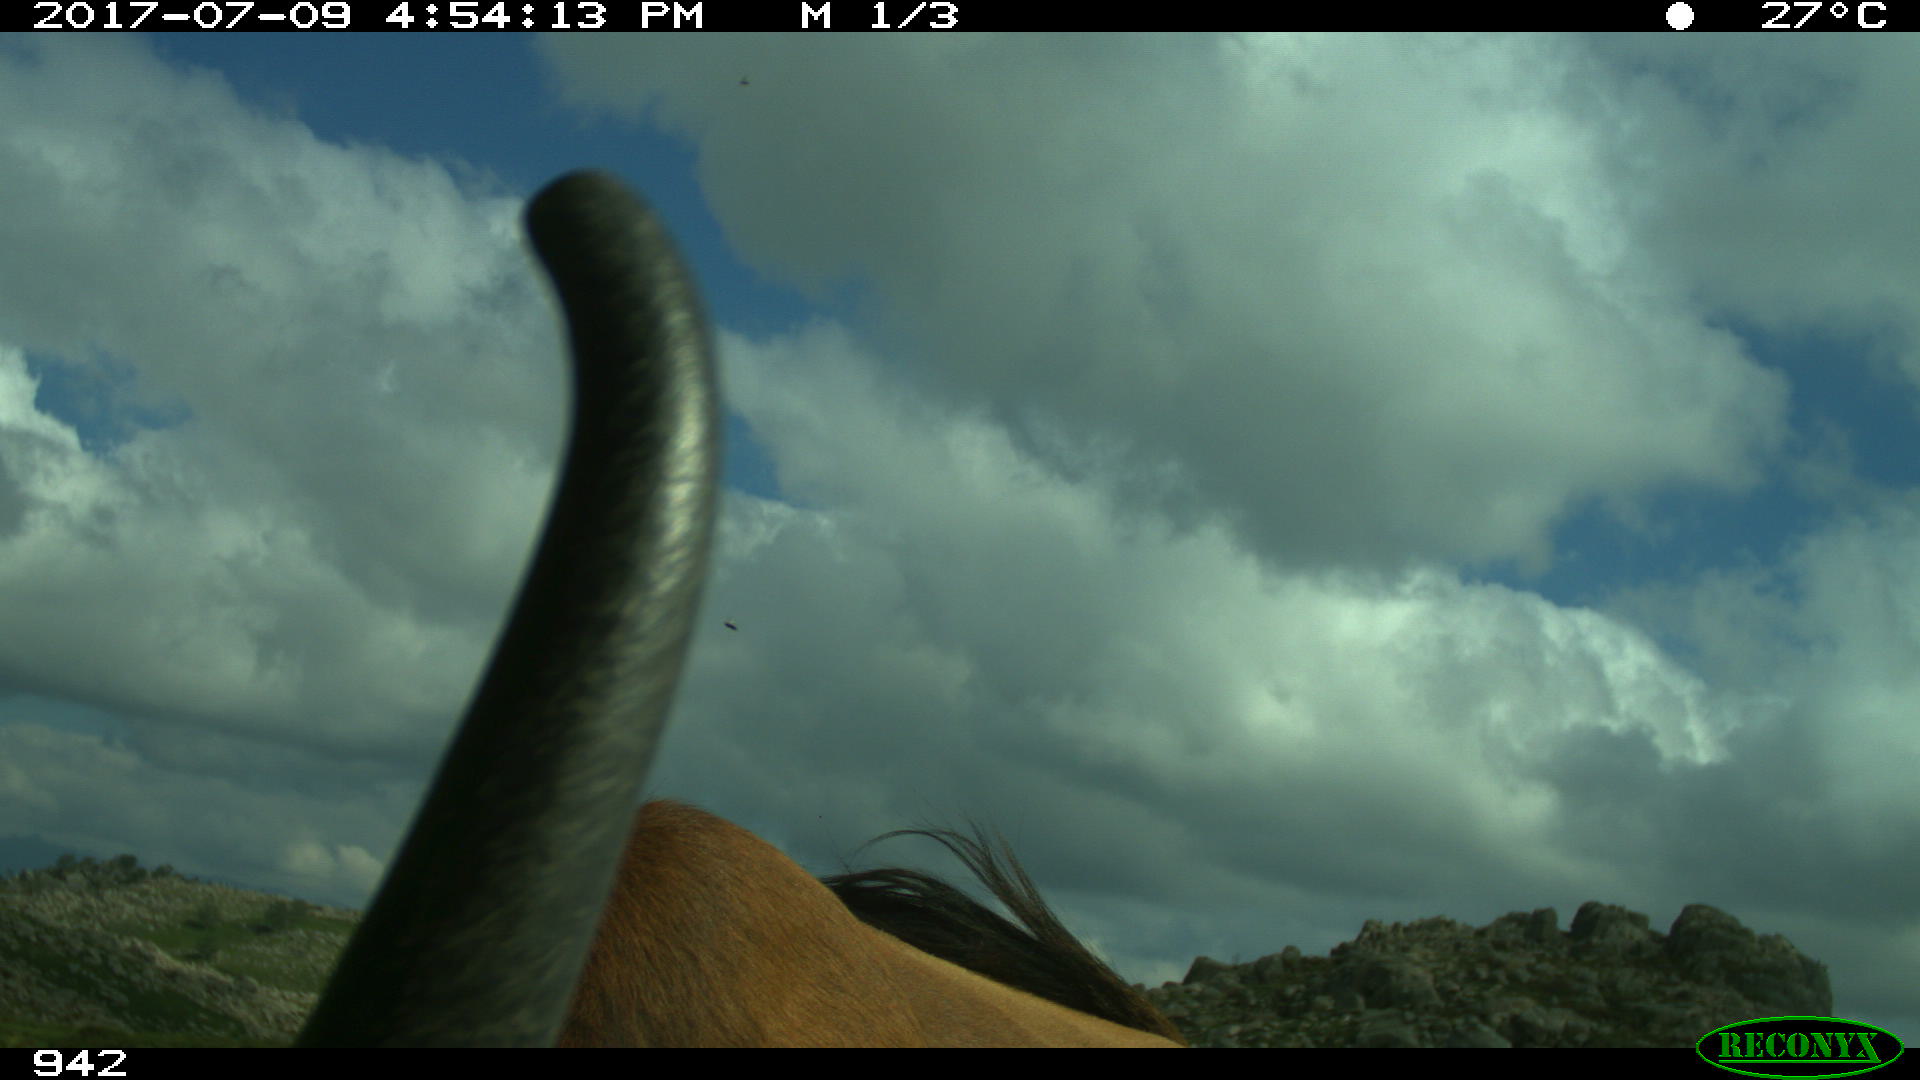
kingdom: Animalia
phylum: Chordata
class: Mammalia
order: Artiodactyla
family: Bovidae
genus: Bos
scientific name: Bos taurus
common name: Domesticated cattle
